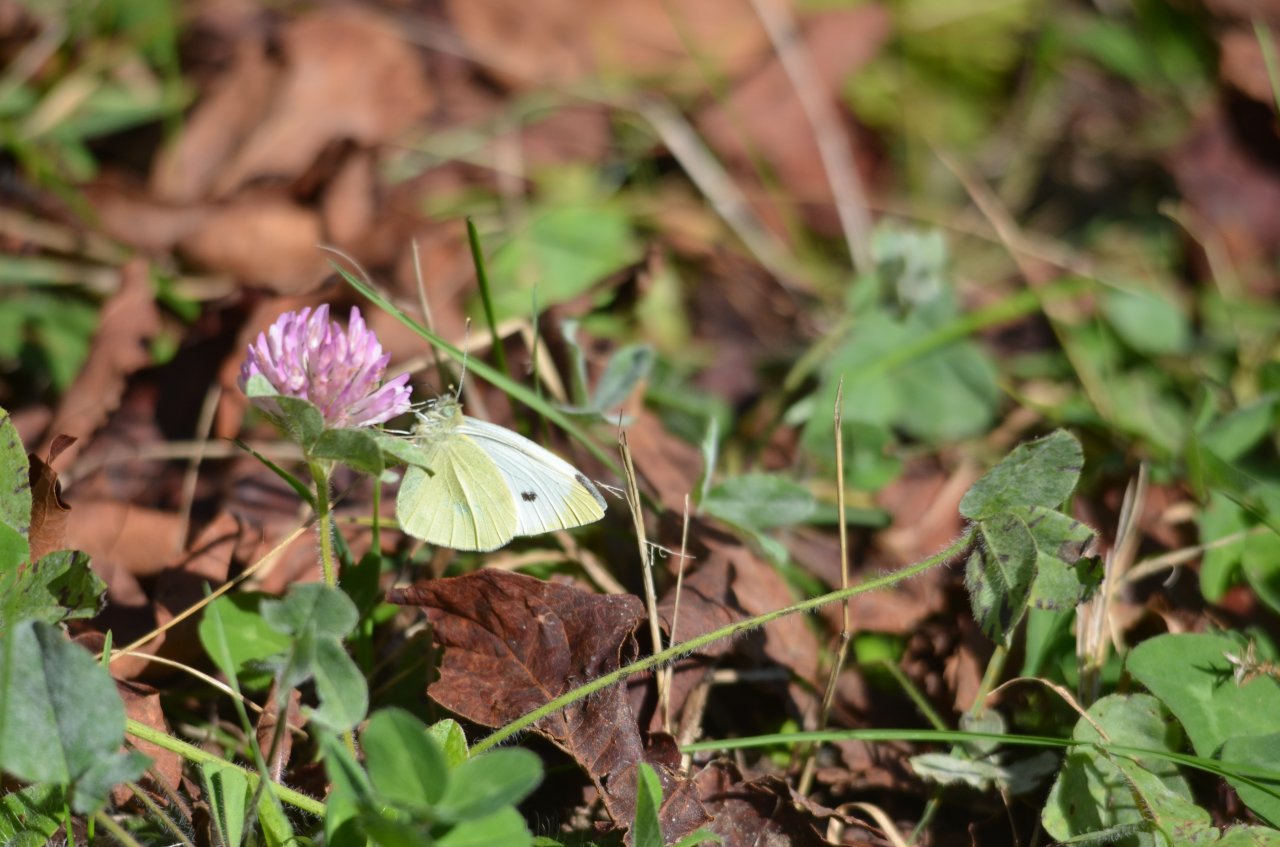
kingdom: Animalia
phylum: Arthropoda
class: Insecta
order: Lepidoptera
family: Pieridae
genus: Pieris
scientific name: Pieris rapae
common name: Cabbage White
